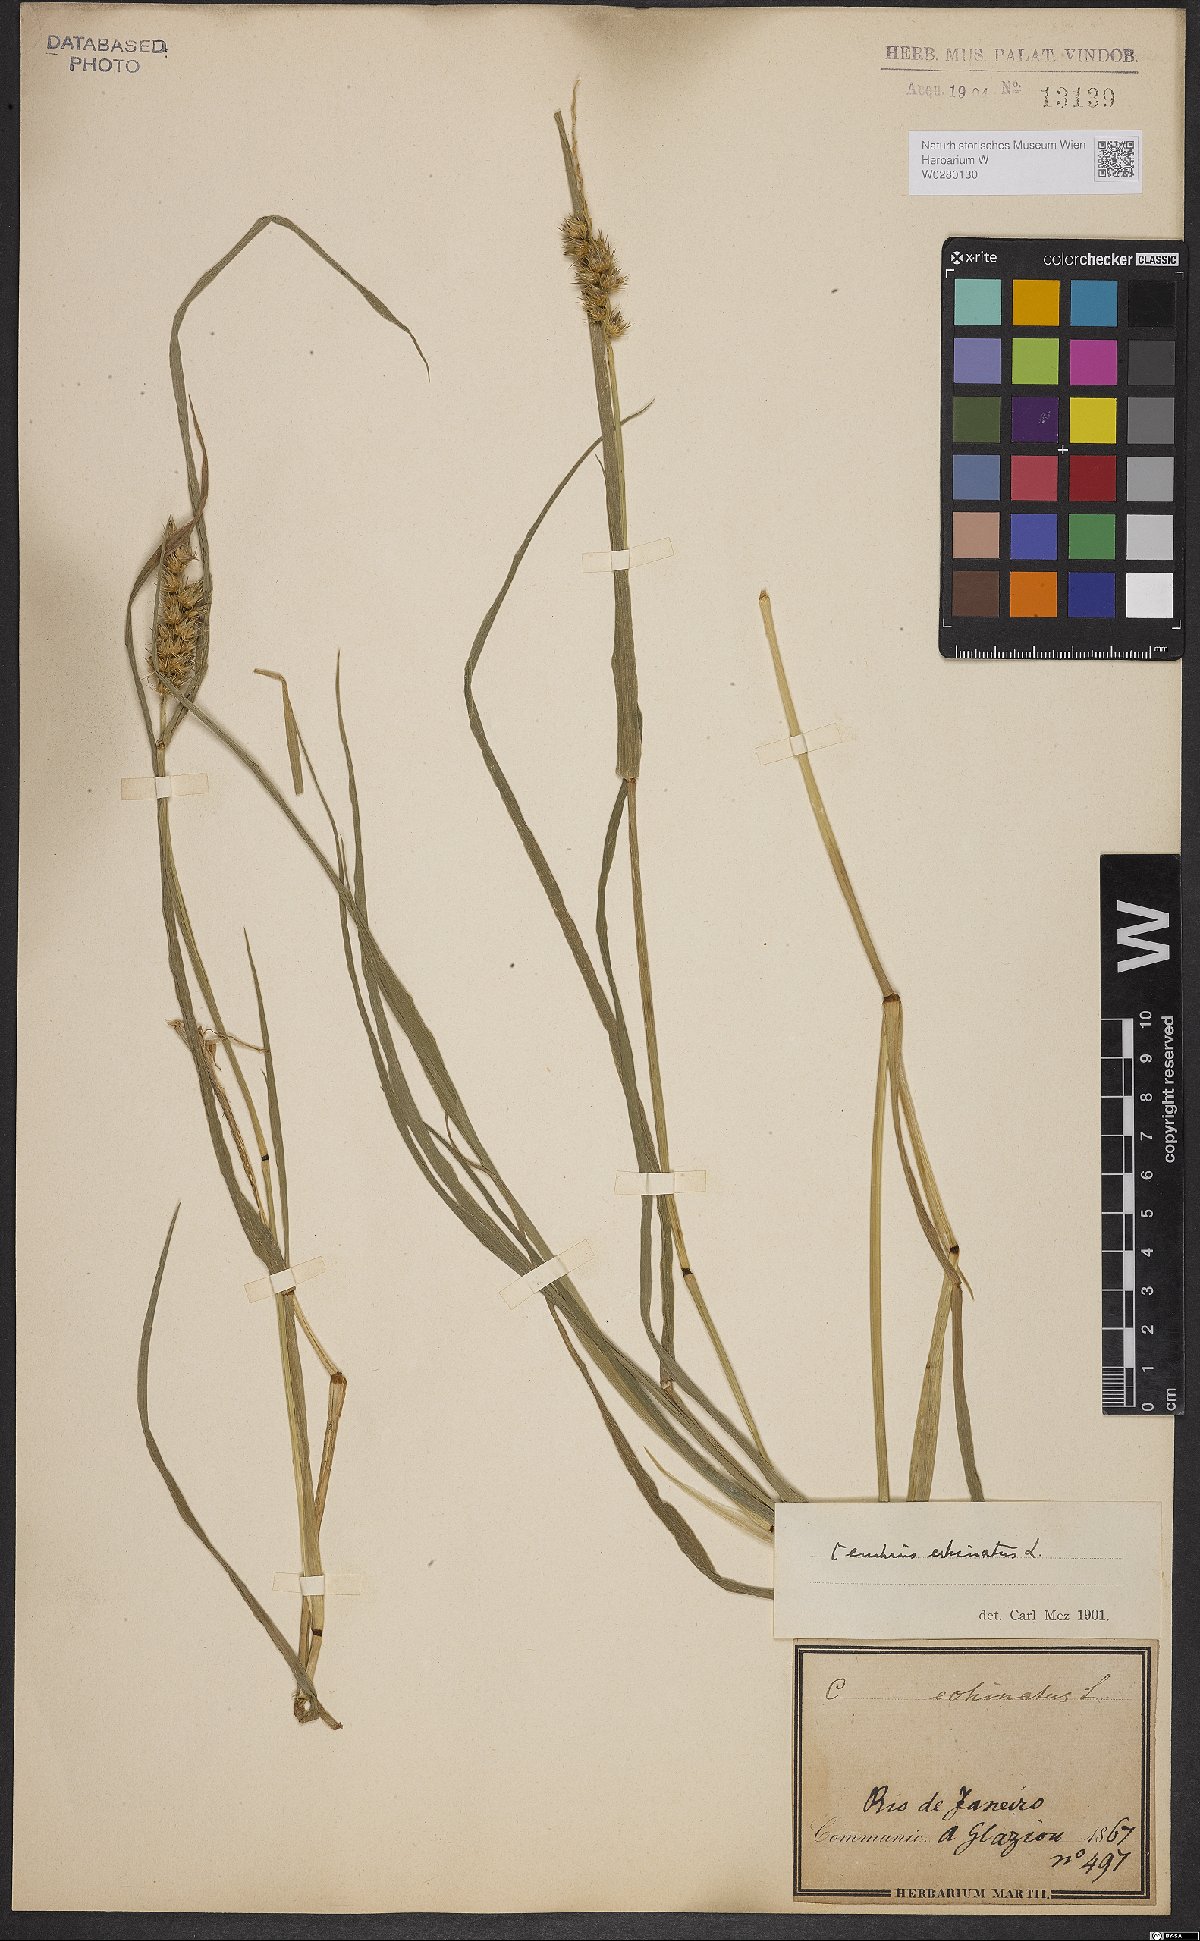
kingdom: Plantae
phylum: Tracheophyta
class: Liliopsida
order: Poales
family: Poaceae
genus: Cenchrus
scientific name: Cenchrus echinatus
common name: Southern sandbur
